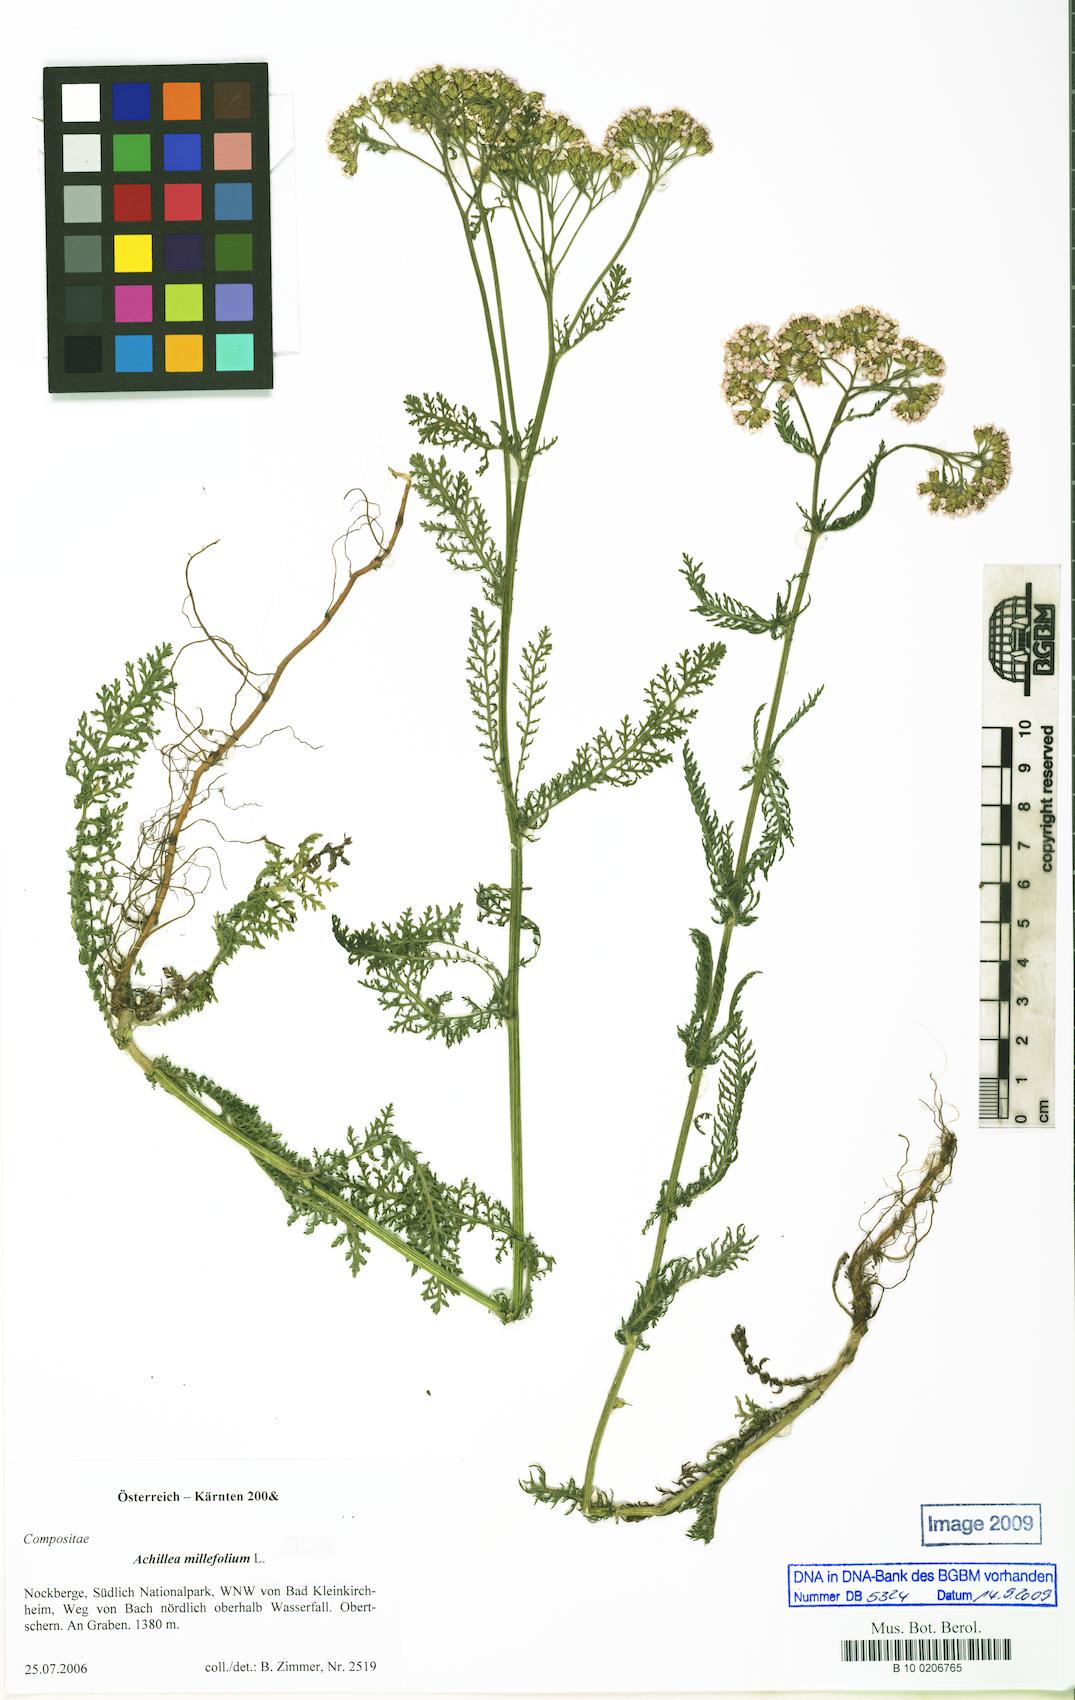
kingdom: Plantae
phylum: Tracheophyta
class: Magnoliopsida
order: Asterales
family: Asteraceae
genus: Achillea
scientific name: Achillea millefolium
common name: Yarrow
